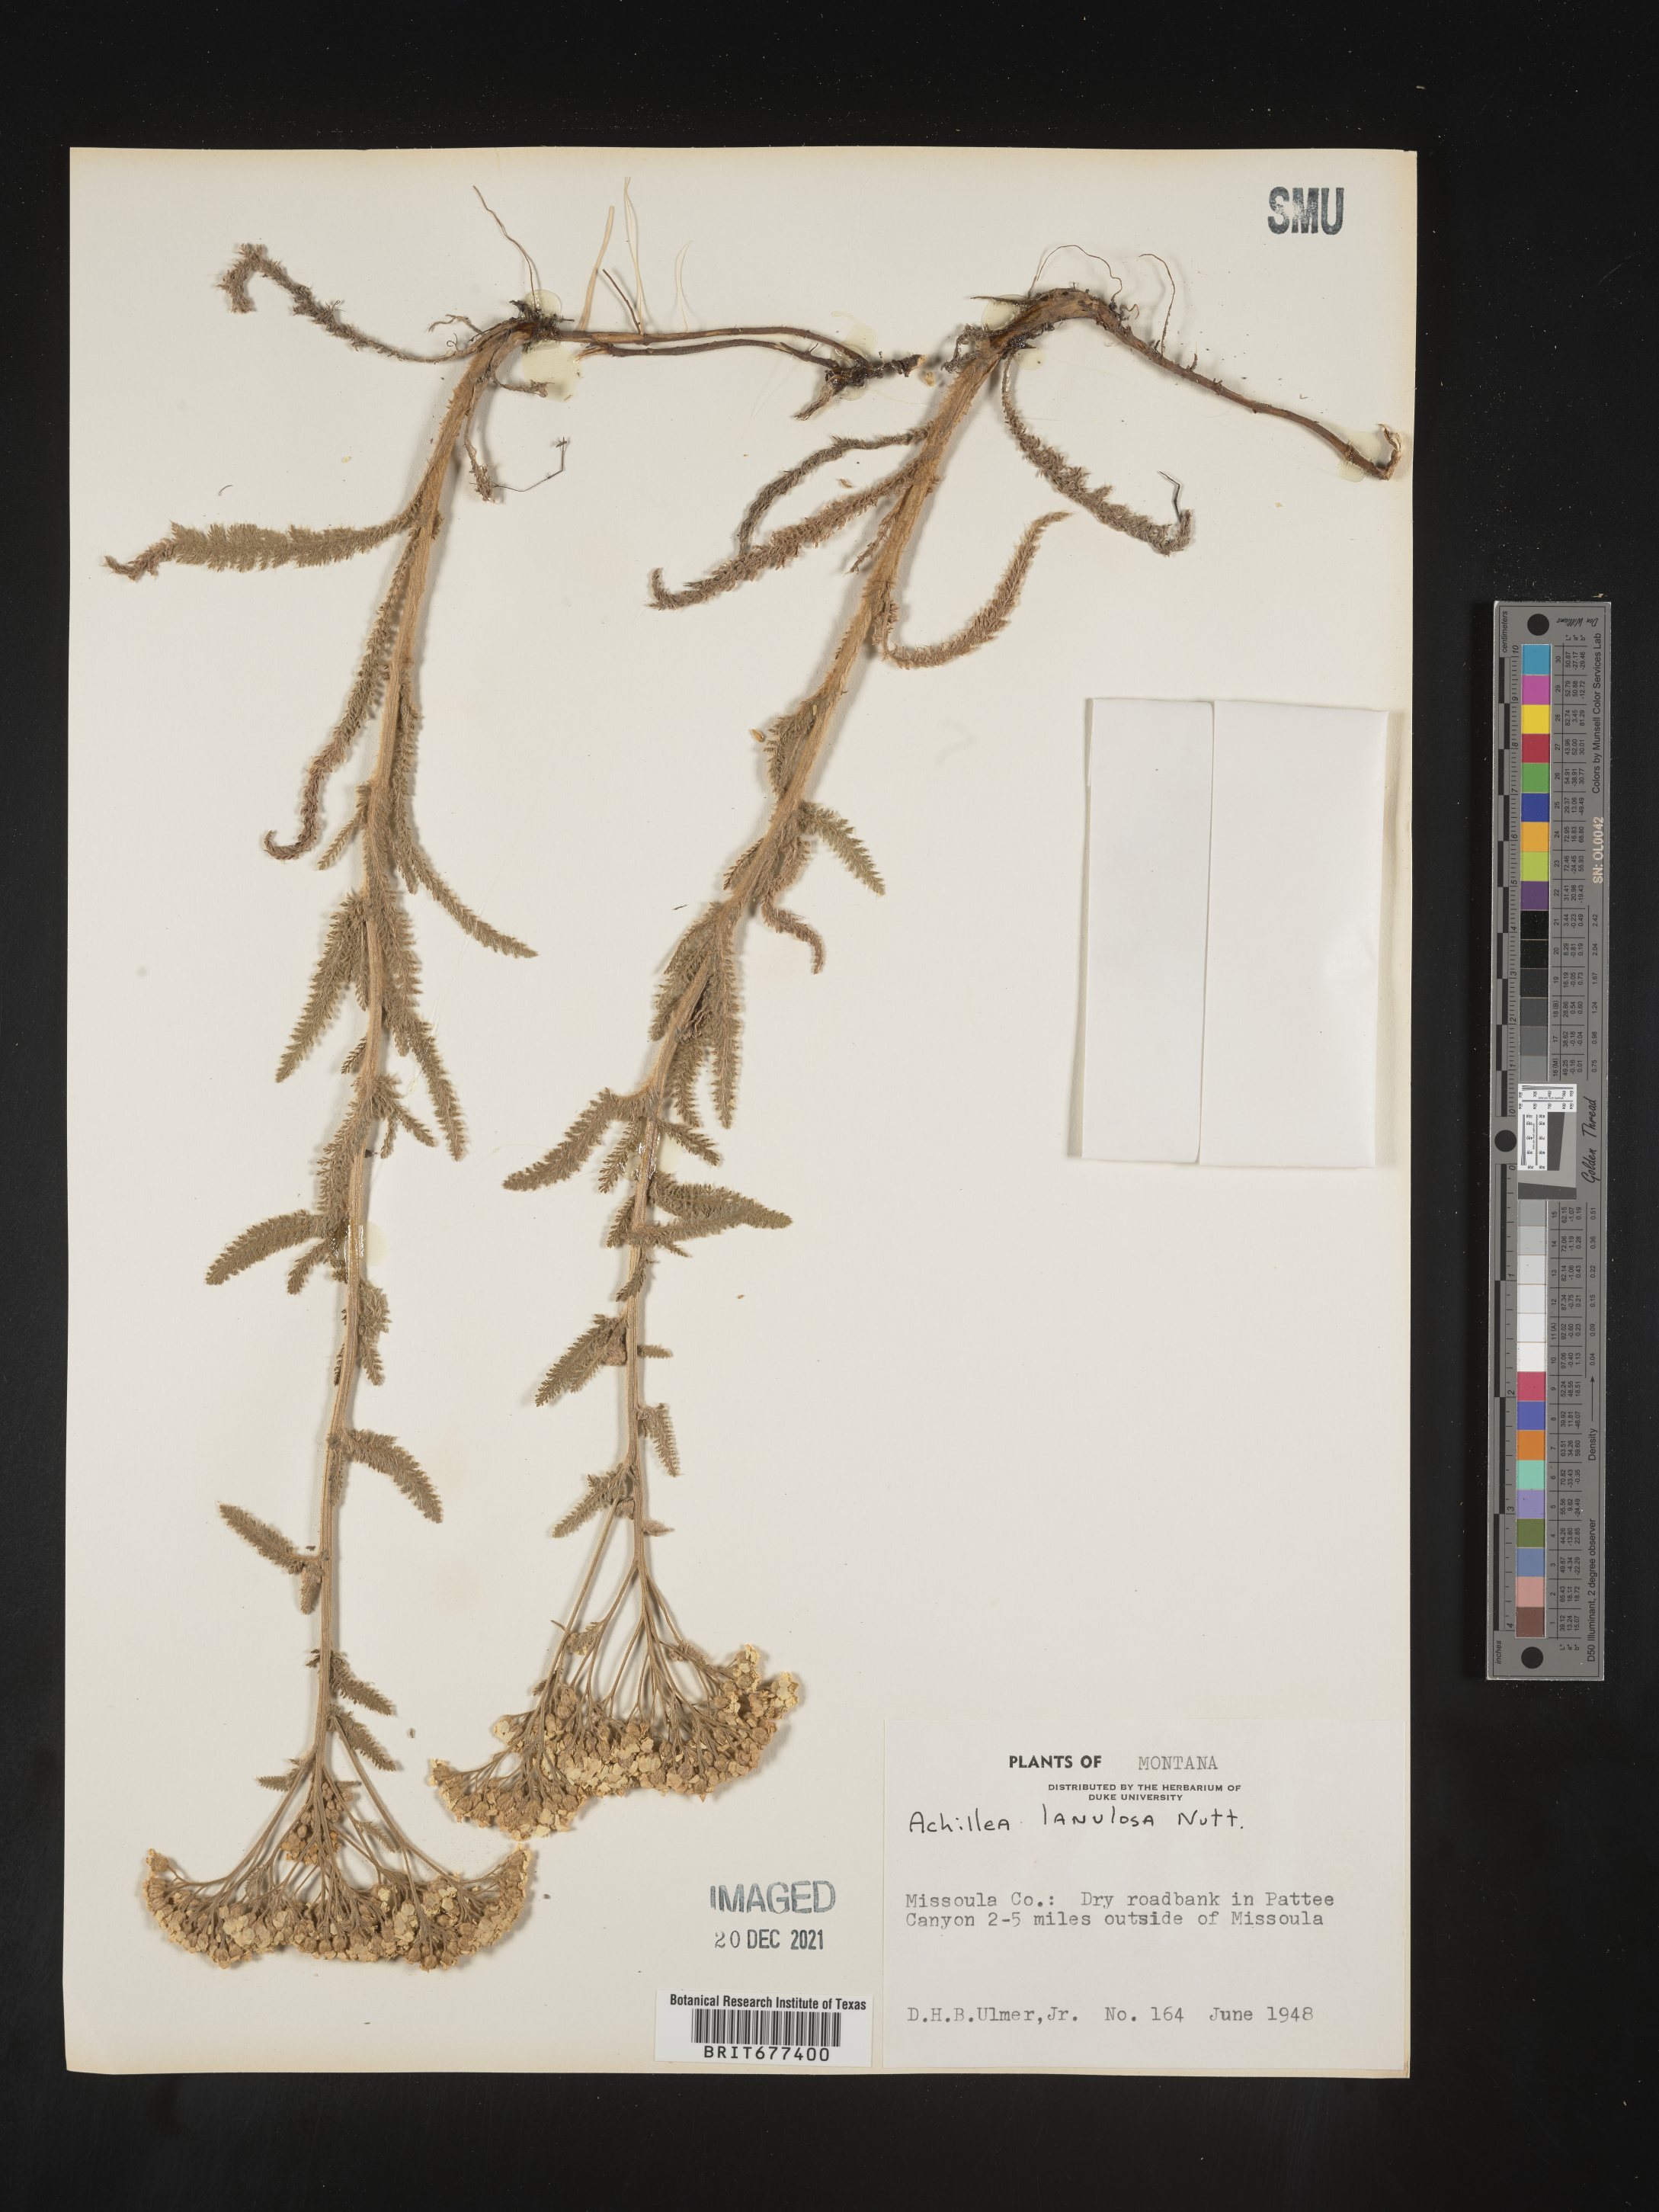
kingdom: Plantae
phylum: Tracheophyta
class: Magnoliopsida
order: Asterales
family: Asteraceae
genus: Achillea
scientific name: Achillea millefolium
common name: Yarrow
